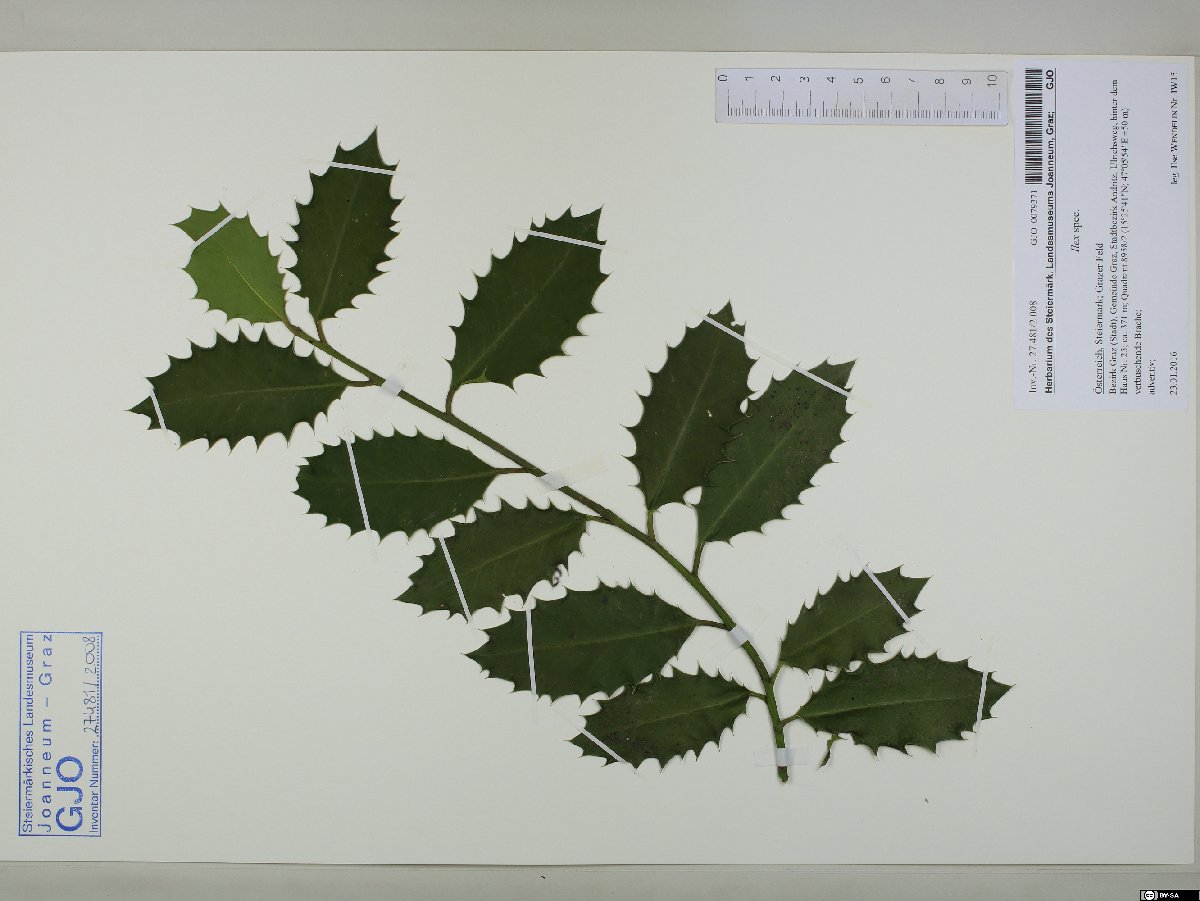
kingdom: Plantae
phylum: Tracheophyta
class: Magnoliopsida
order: Aquifoliales
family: Aquifoliaceae
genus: Ilex
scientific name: Ilex
